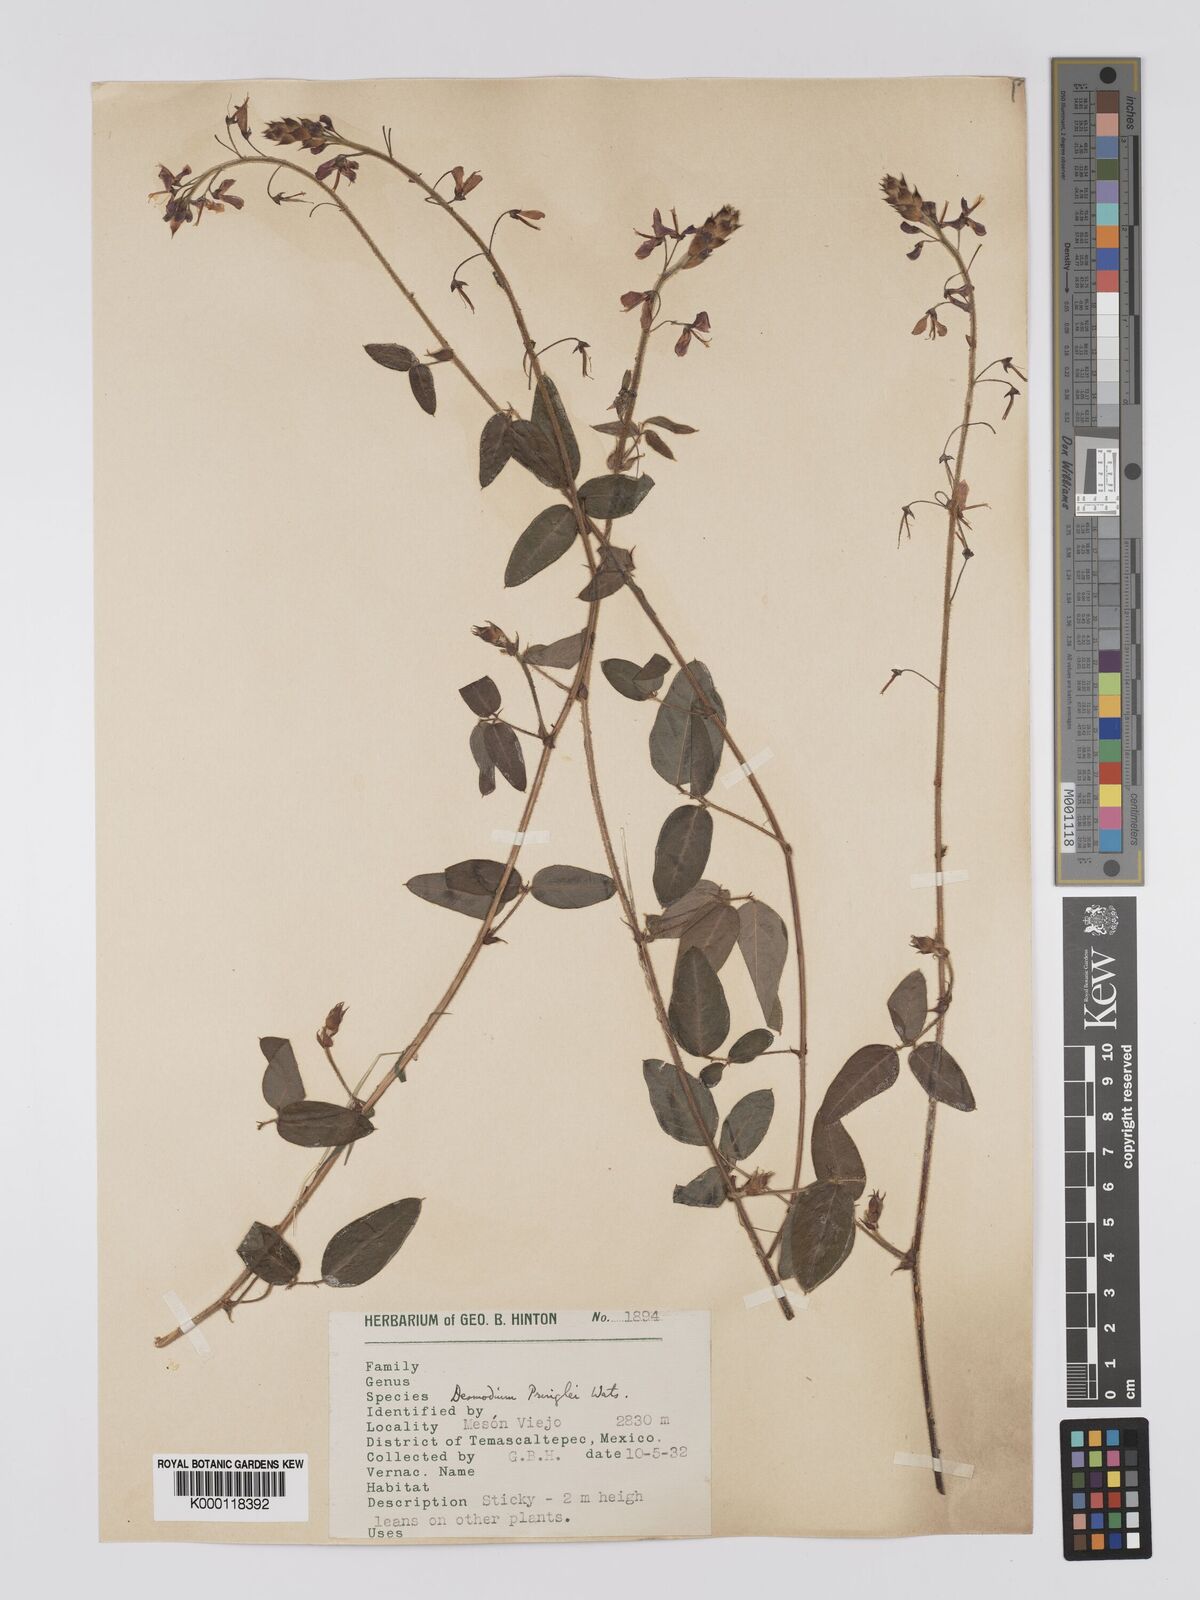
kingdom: Plantae
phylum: Tracheophyta
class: Magnoliopsida
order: Fabales
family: Fabaceae
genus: Desmodium
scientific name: Desmodium pringlei
